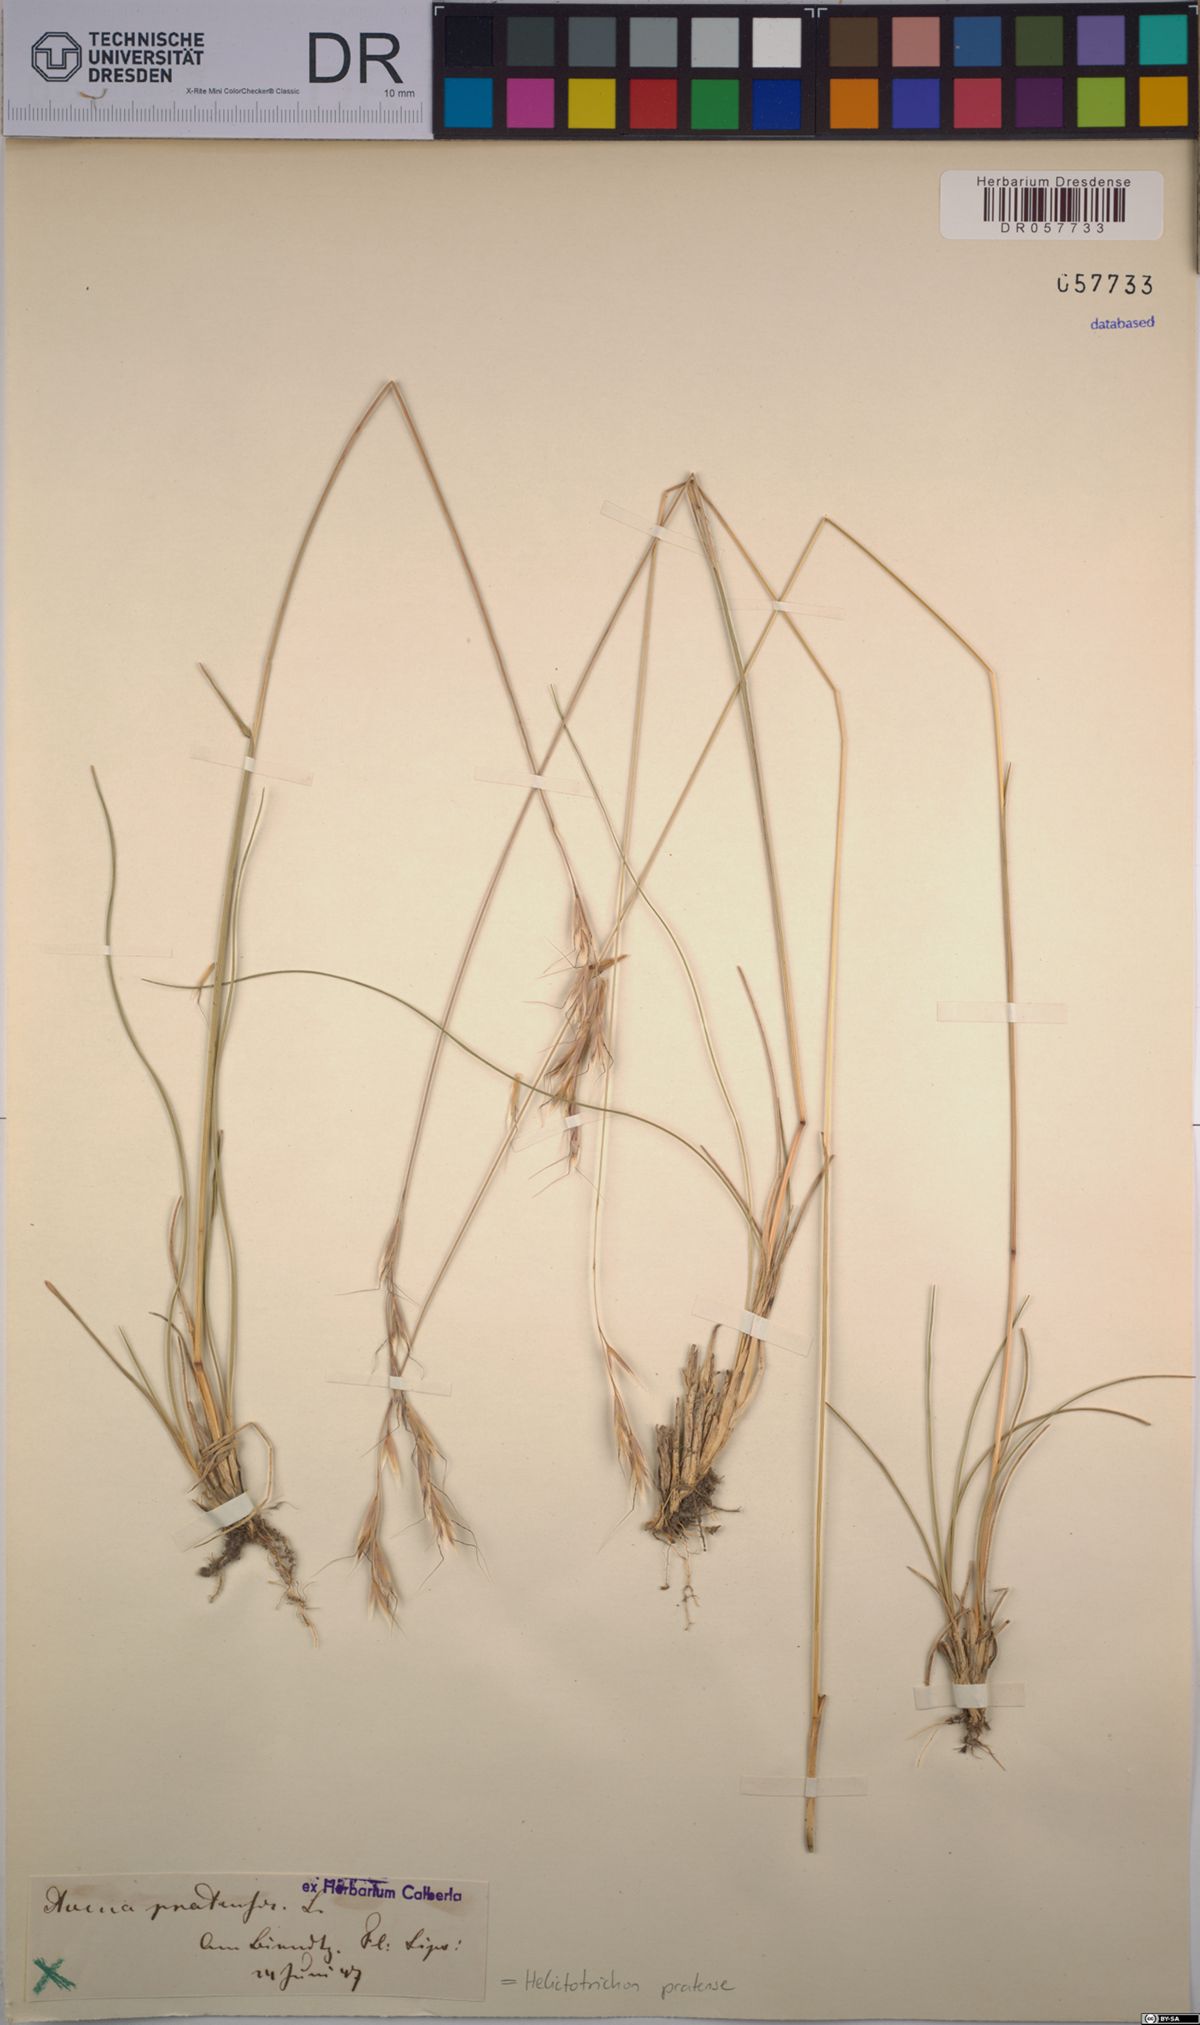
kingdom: Plantae
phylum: Tracheophyta
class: Liliopsida
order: Poales
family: Poaceae
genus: Helictochloa
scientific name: Helictochloa pratensis
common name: Meadow oat grass
